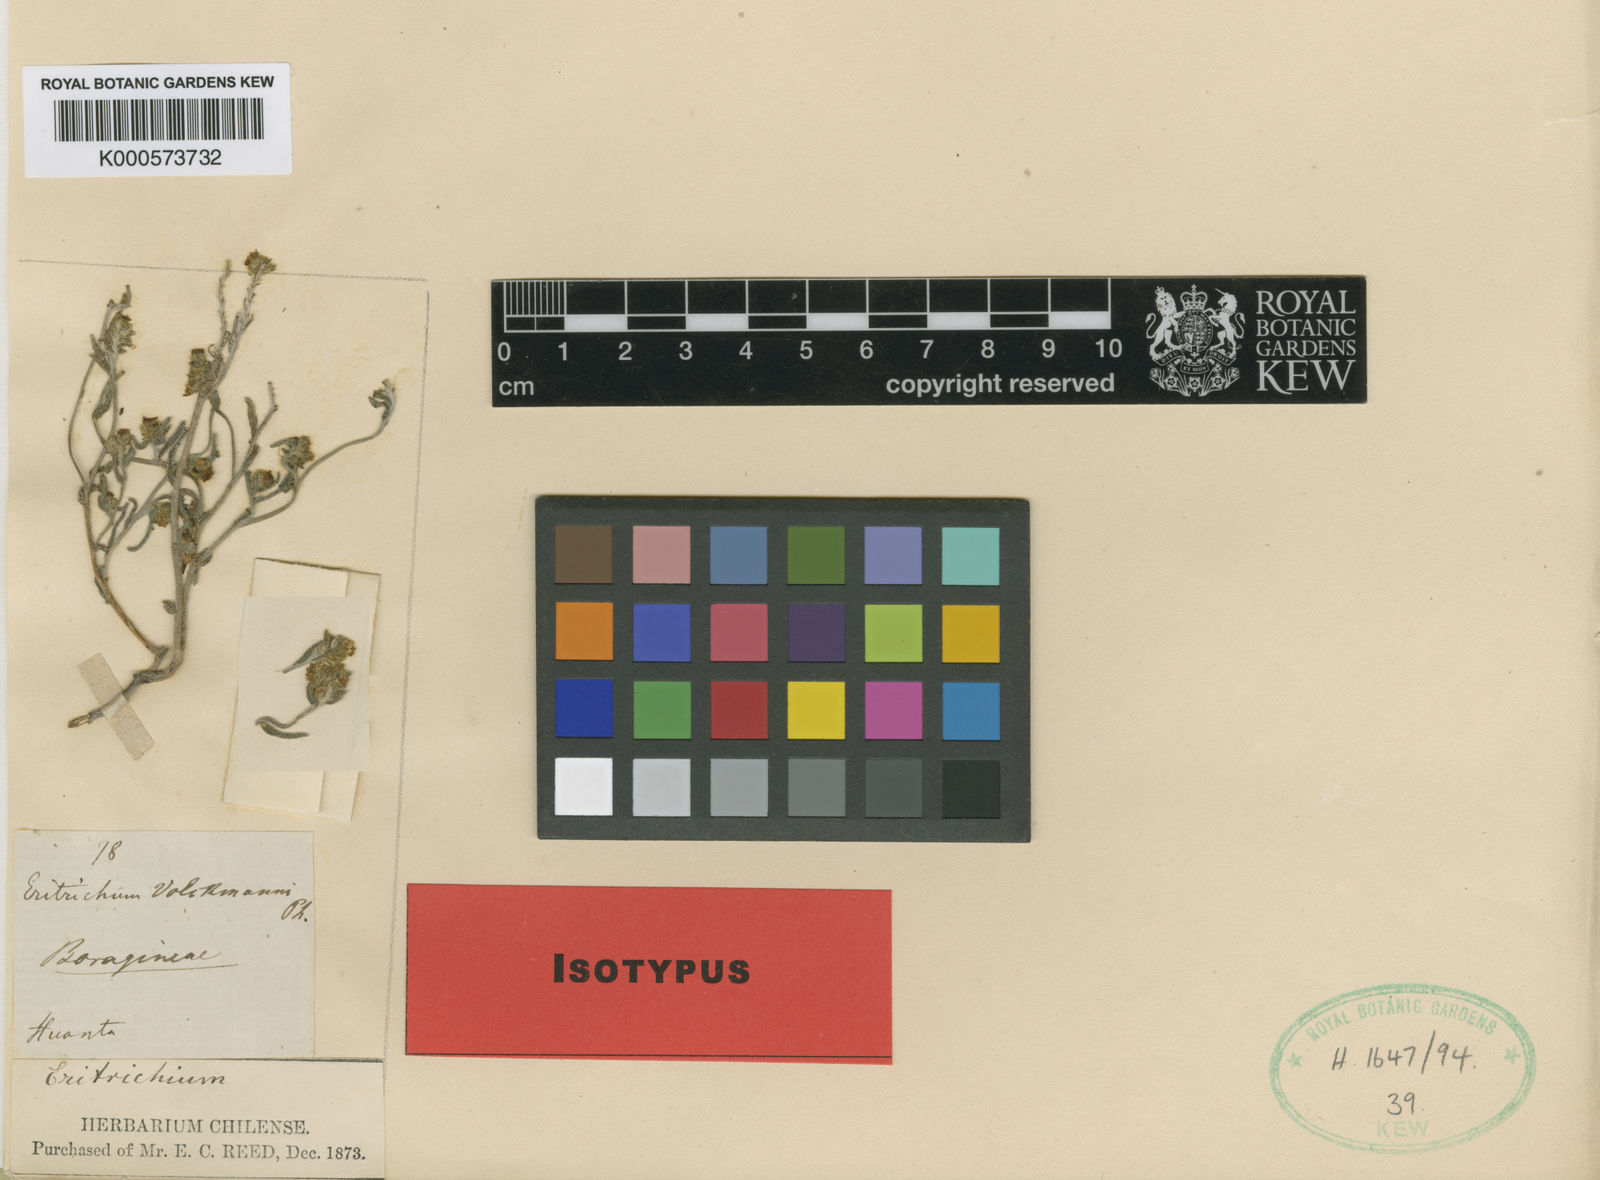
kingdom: Plantae
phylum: Tracheophyta
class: Magnoliopsida
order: Boraginales
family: Boraginaceae
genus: Cryptantha
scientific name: Cryptantha volckmannii
